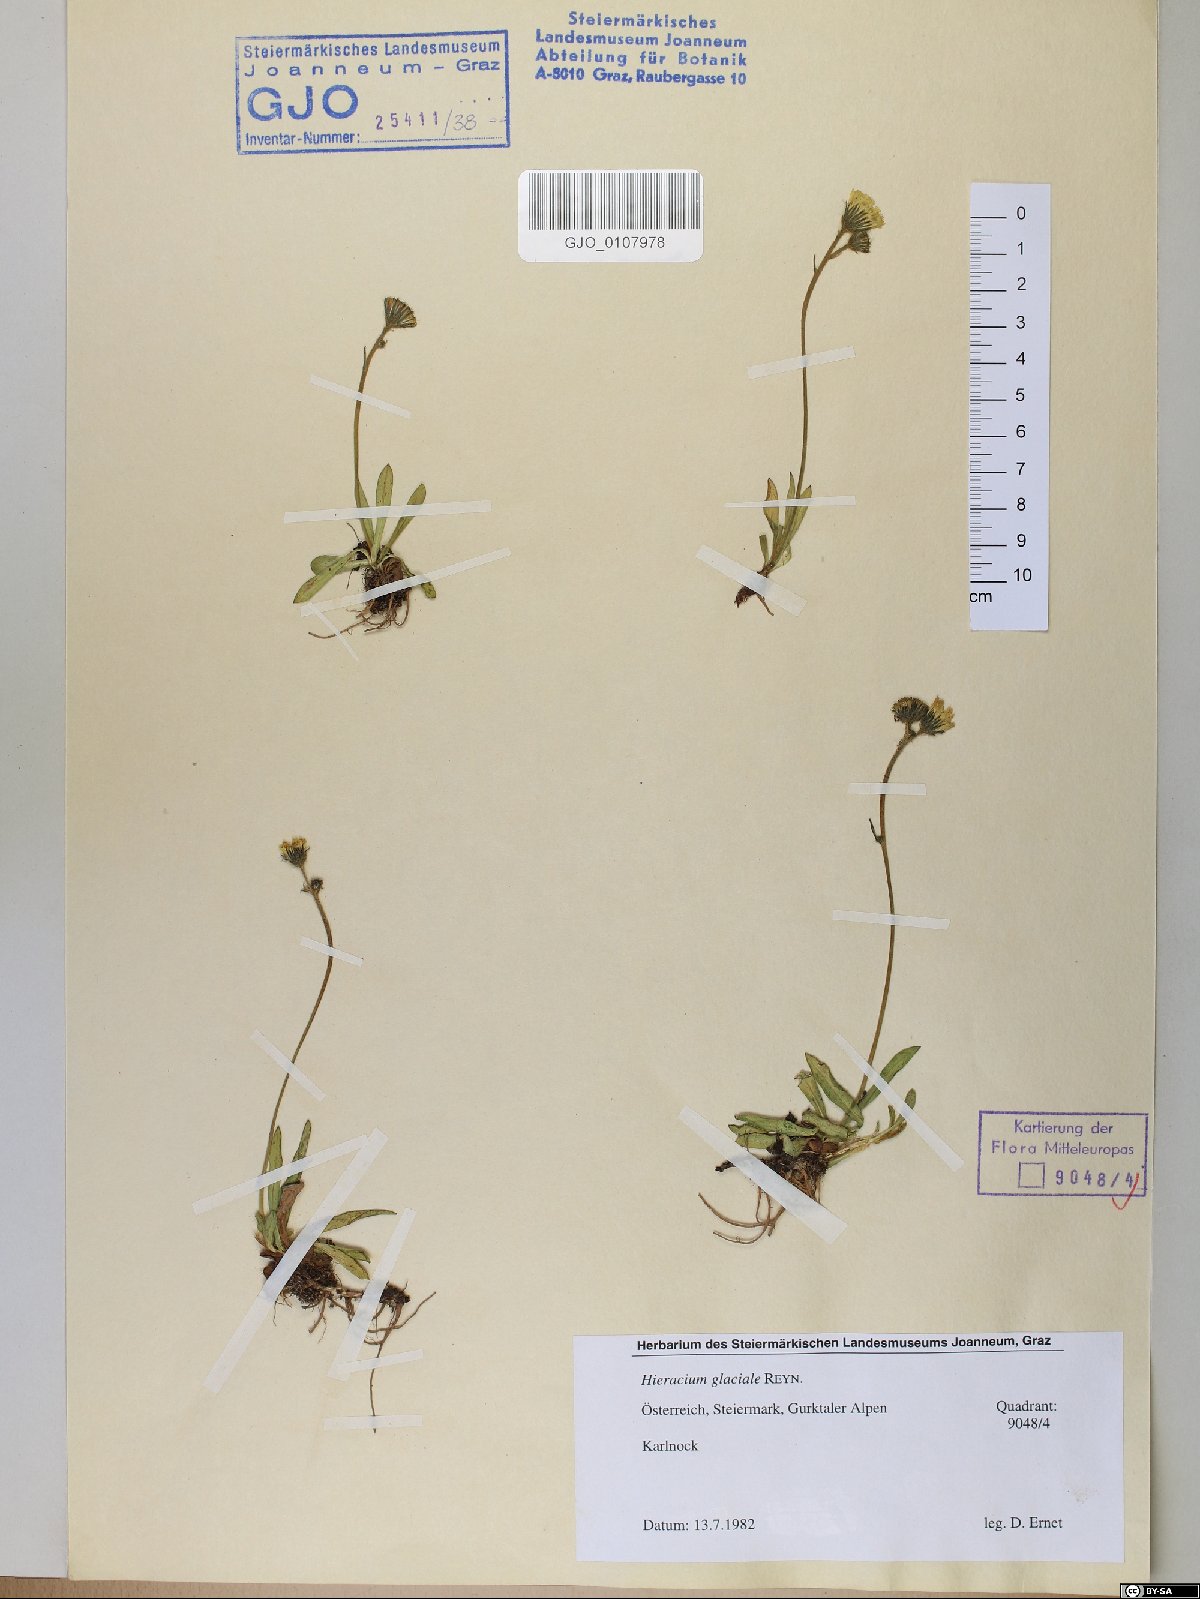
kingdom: Plantae
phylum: Tracheophyta
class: Magnoliopsida
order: Asterales
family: Asteraceae
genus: Pilosella
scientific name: Pilosella glacialis
